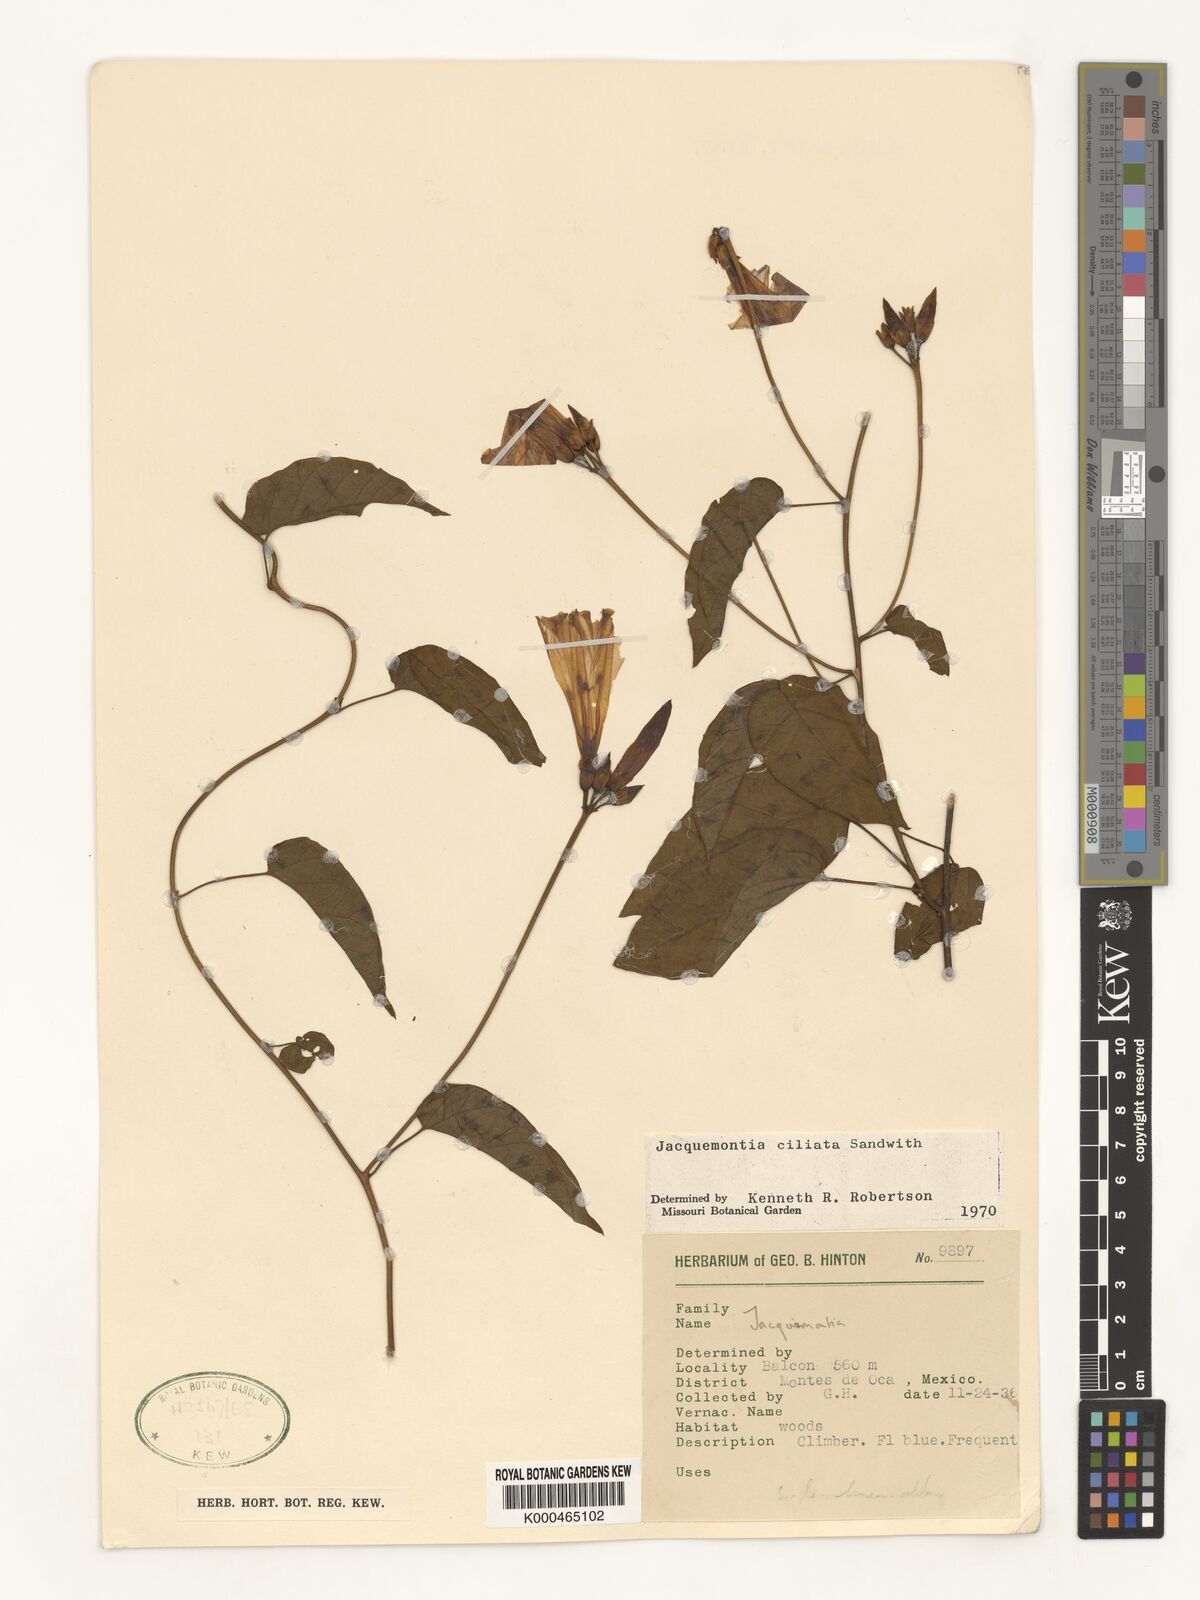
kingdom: Plantae
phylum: Tracheophyta
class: Magnoliopsida
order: Solanales
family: Convolvulaceae
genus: Jacquemontia
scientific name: Jacquemontia gabrielii
